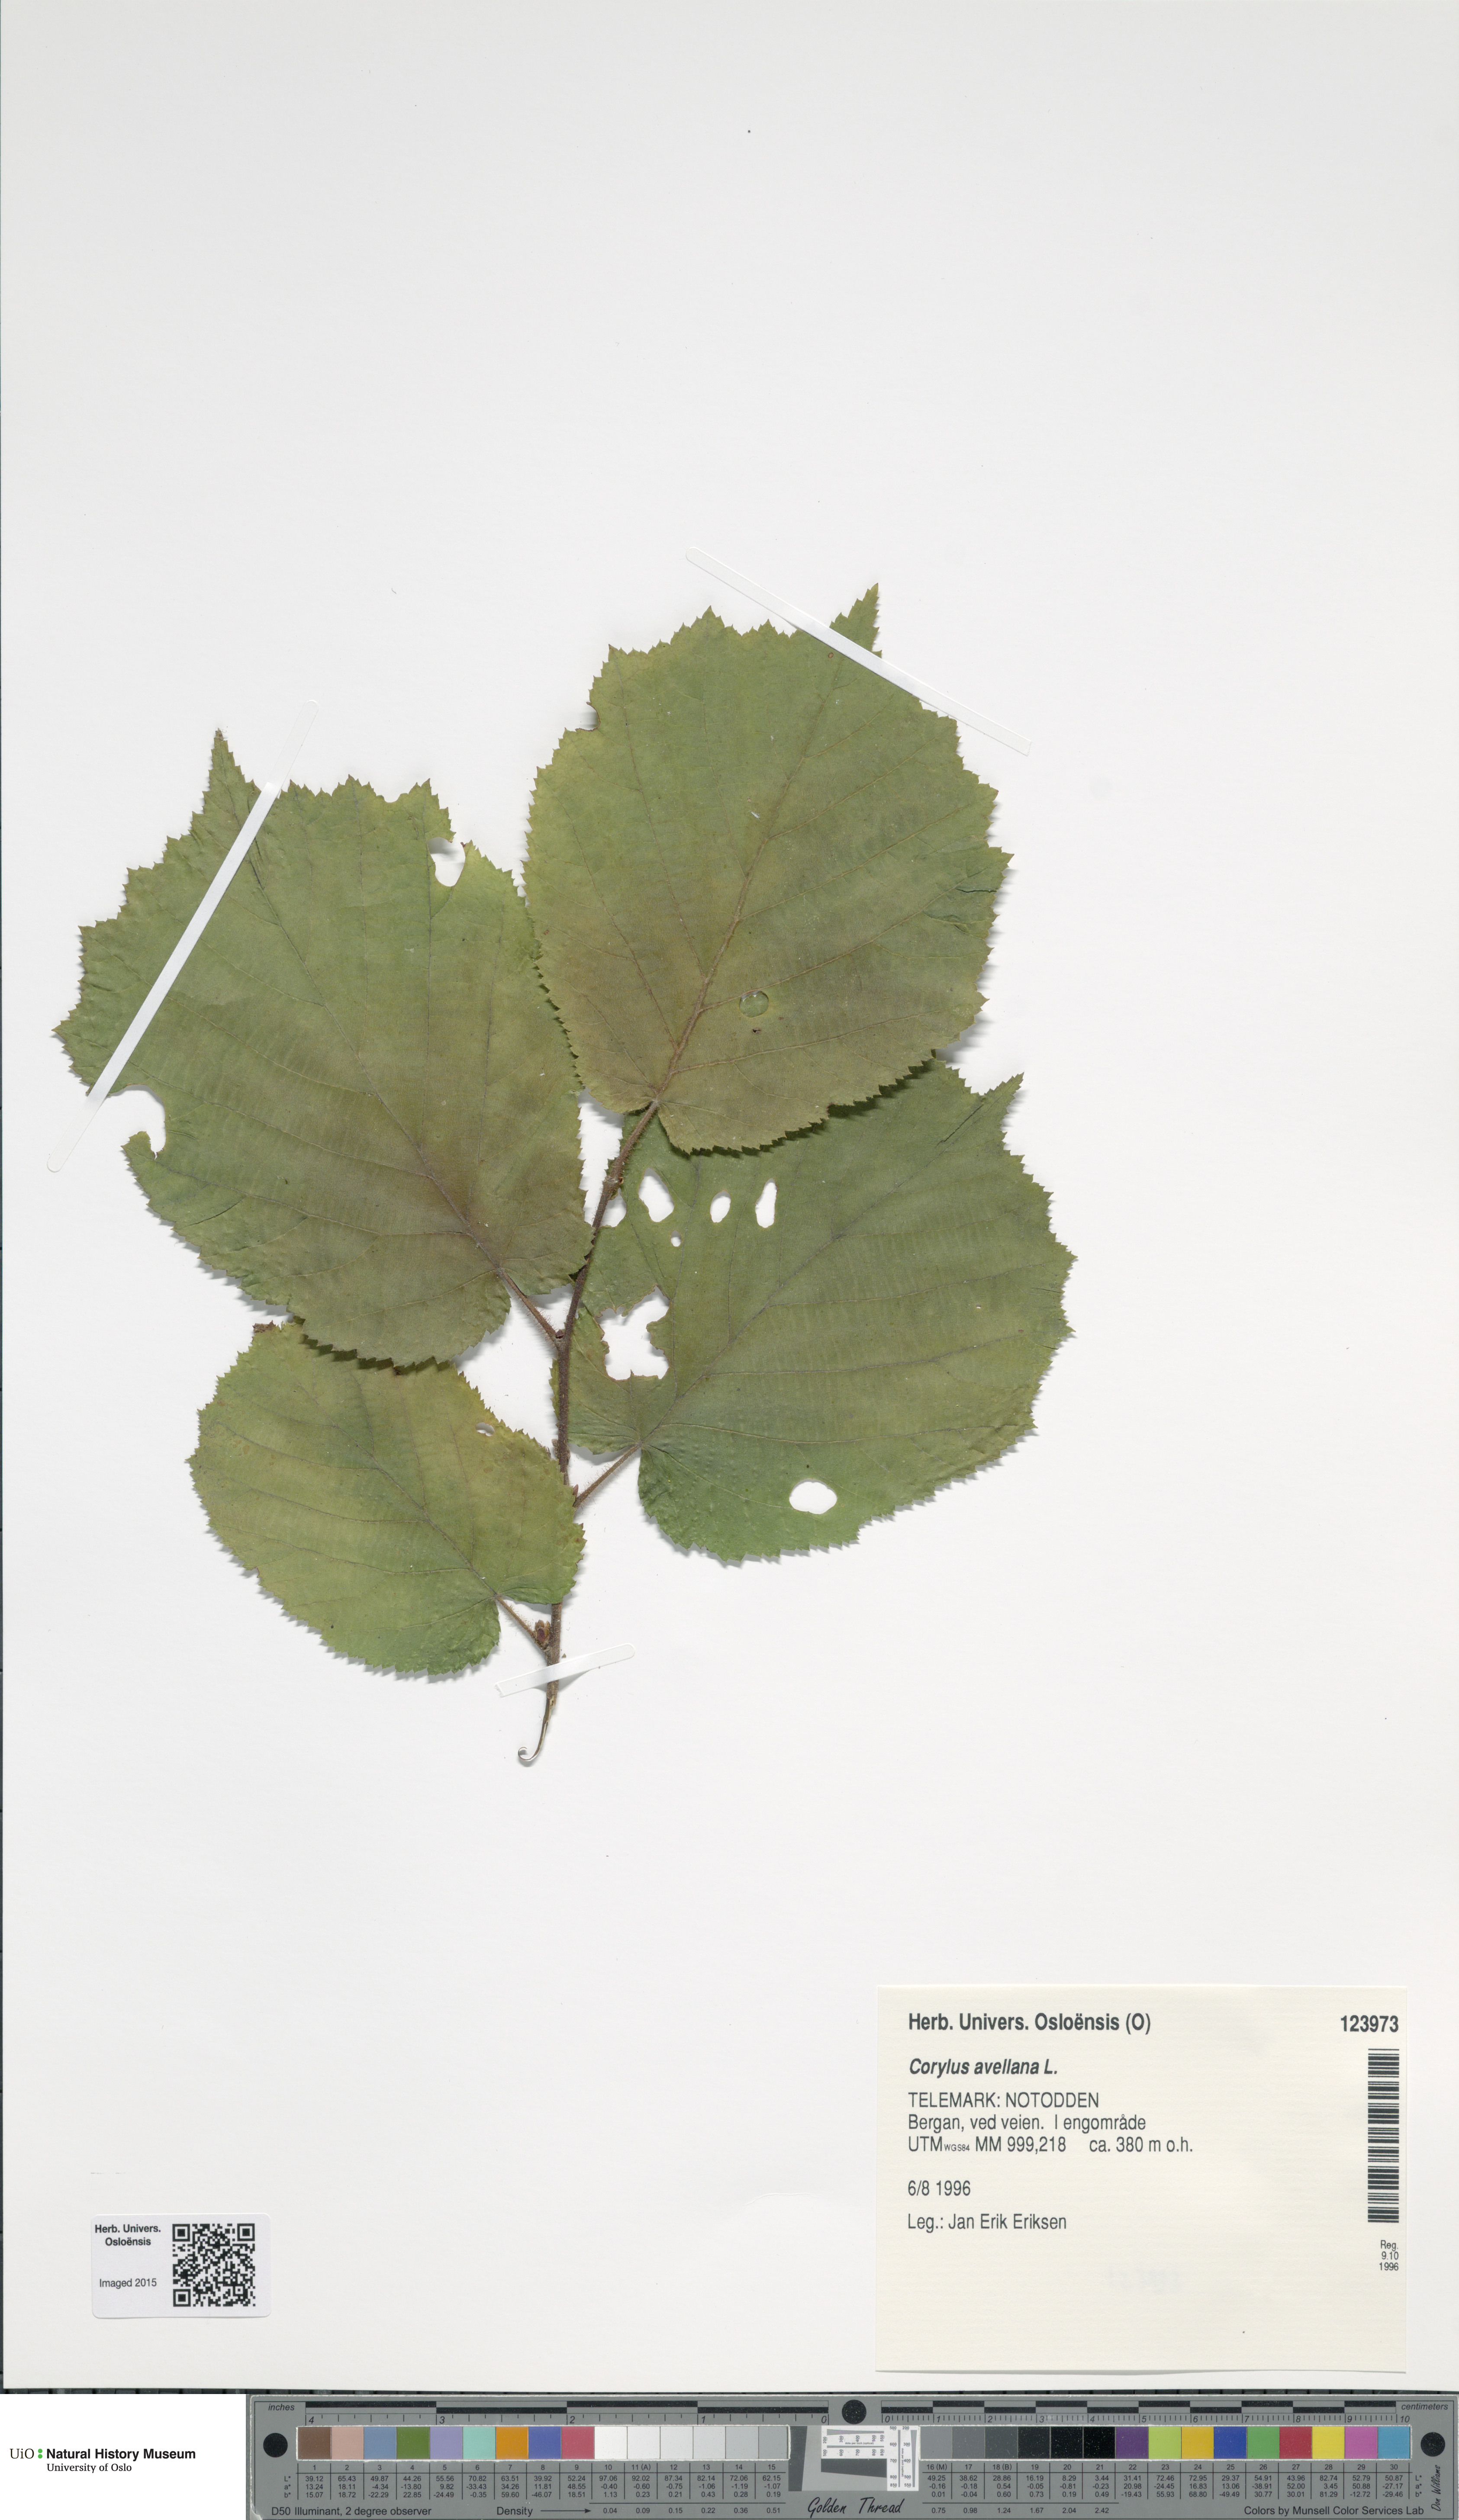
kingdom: Plantae
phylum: Tracheophyta
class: Magnoliopsida
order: Fagales
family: Betulaceae
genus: Corylus
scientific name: Corylus avellana
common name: European hazel
